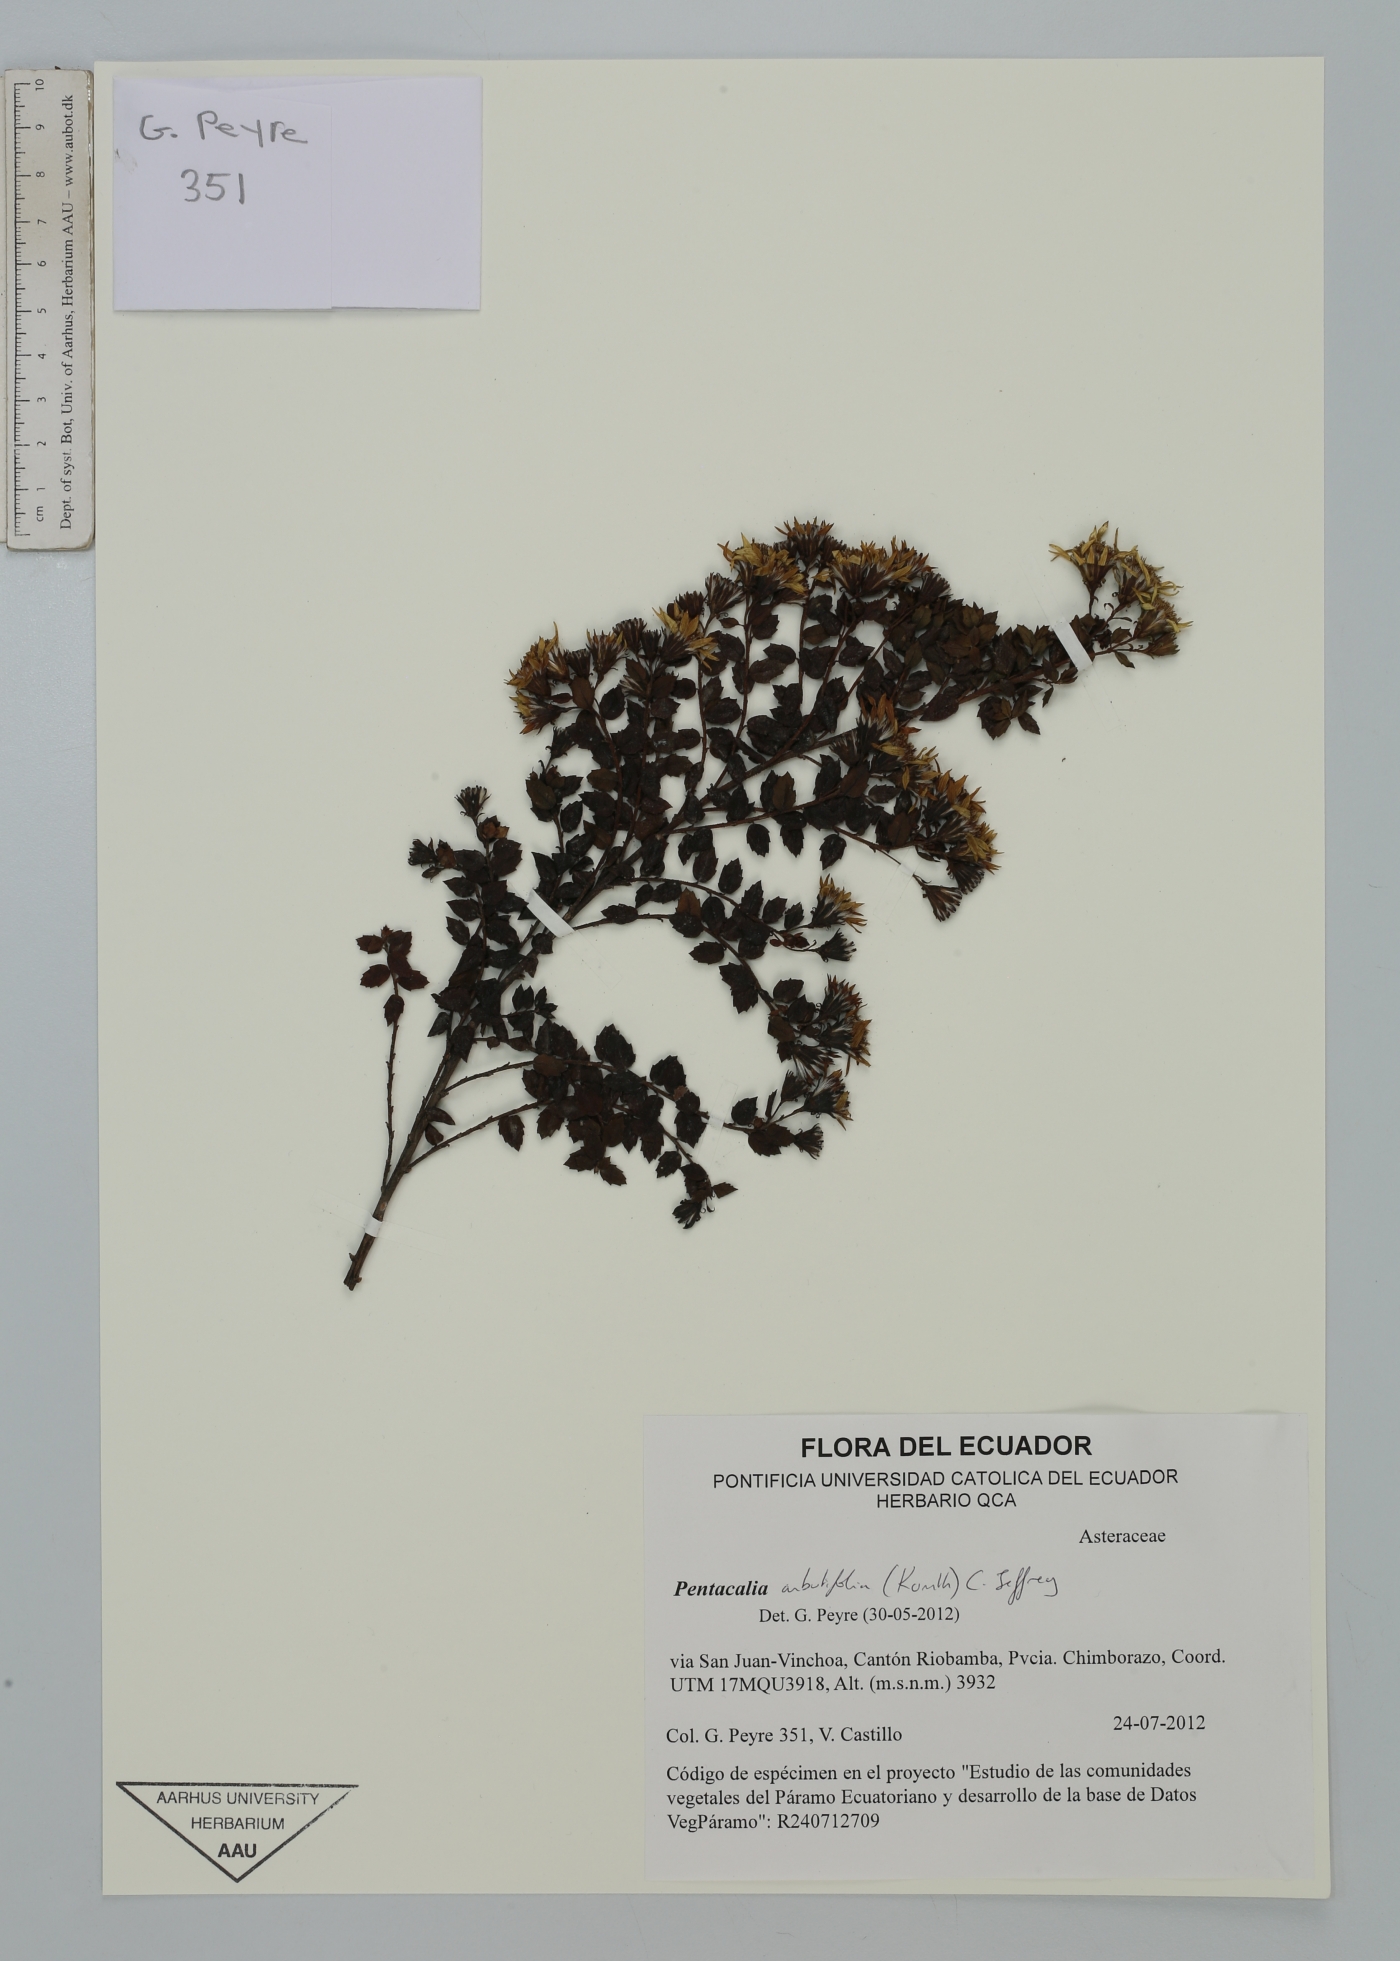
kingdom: Plantae
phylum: Tracheophyta
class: Magnoliopsida
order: Asterales
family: Asteraceae
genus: Monticalia
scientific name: Monticalia arbutifolia
